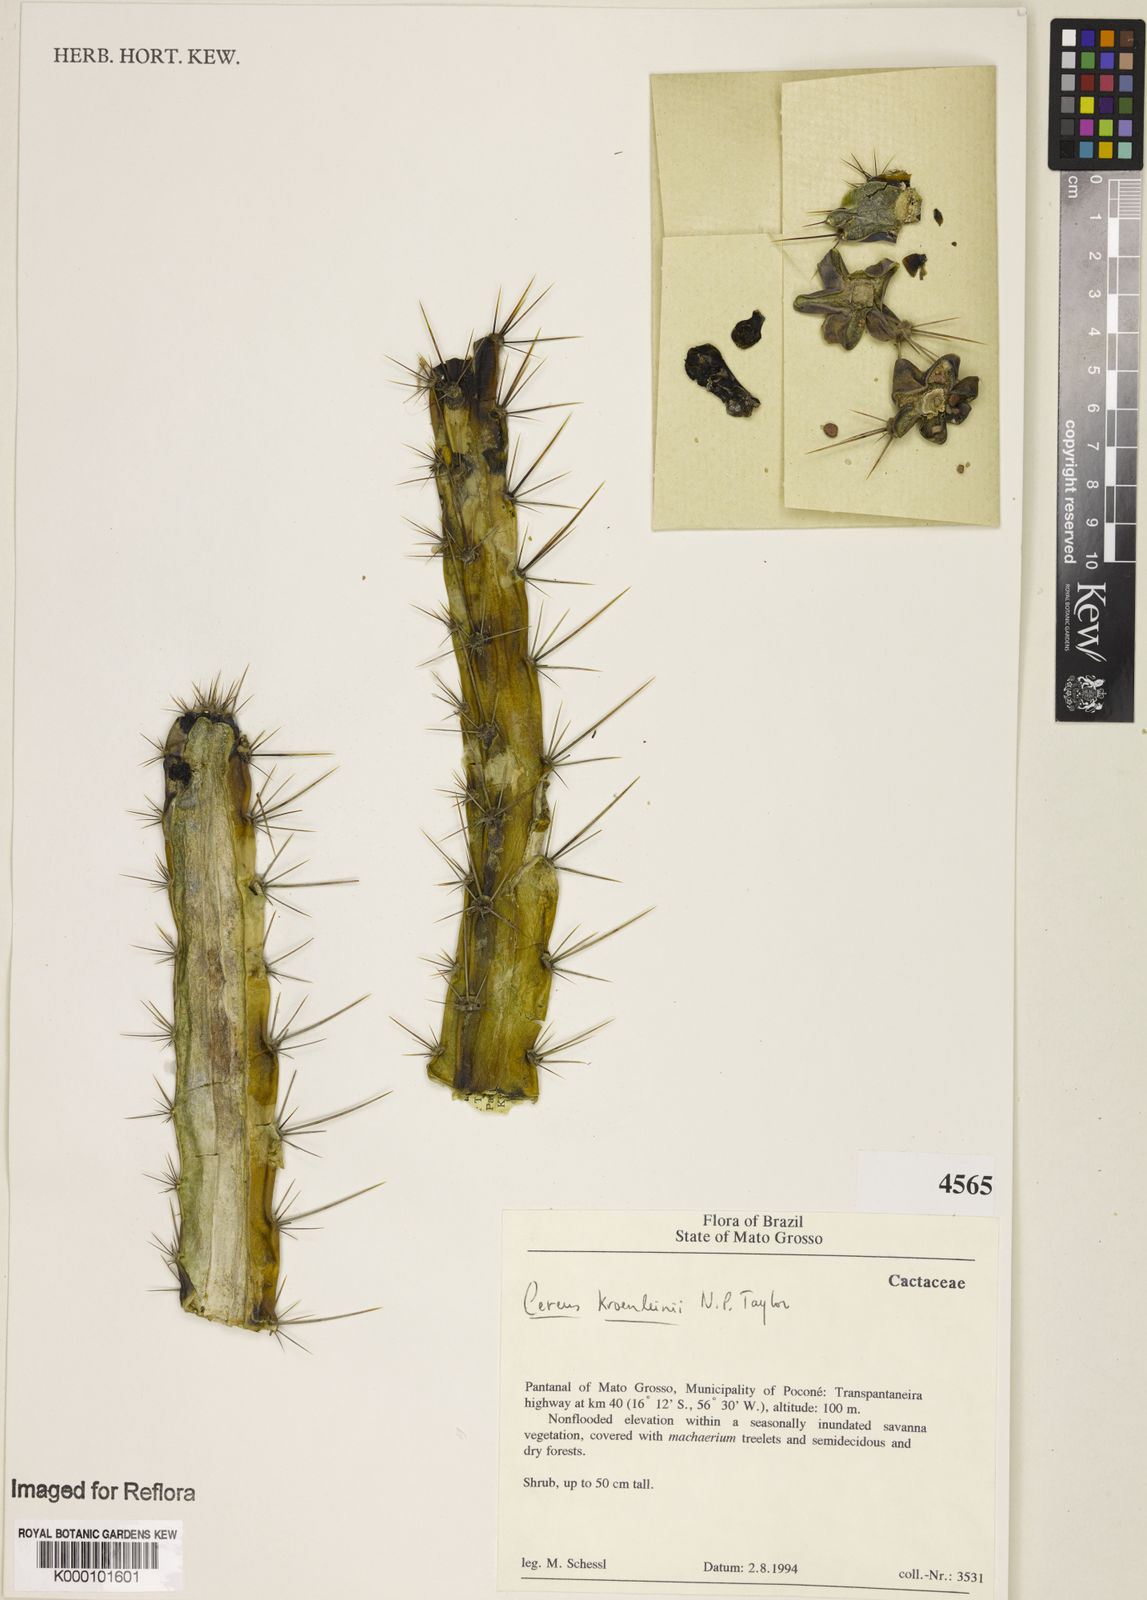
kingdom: Plantae
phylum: Tracheophyta
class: Magnoliopsida
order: Caryophyllales
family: Cactaceae
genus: Cereus
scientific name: Cereus phatnospermus
